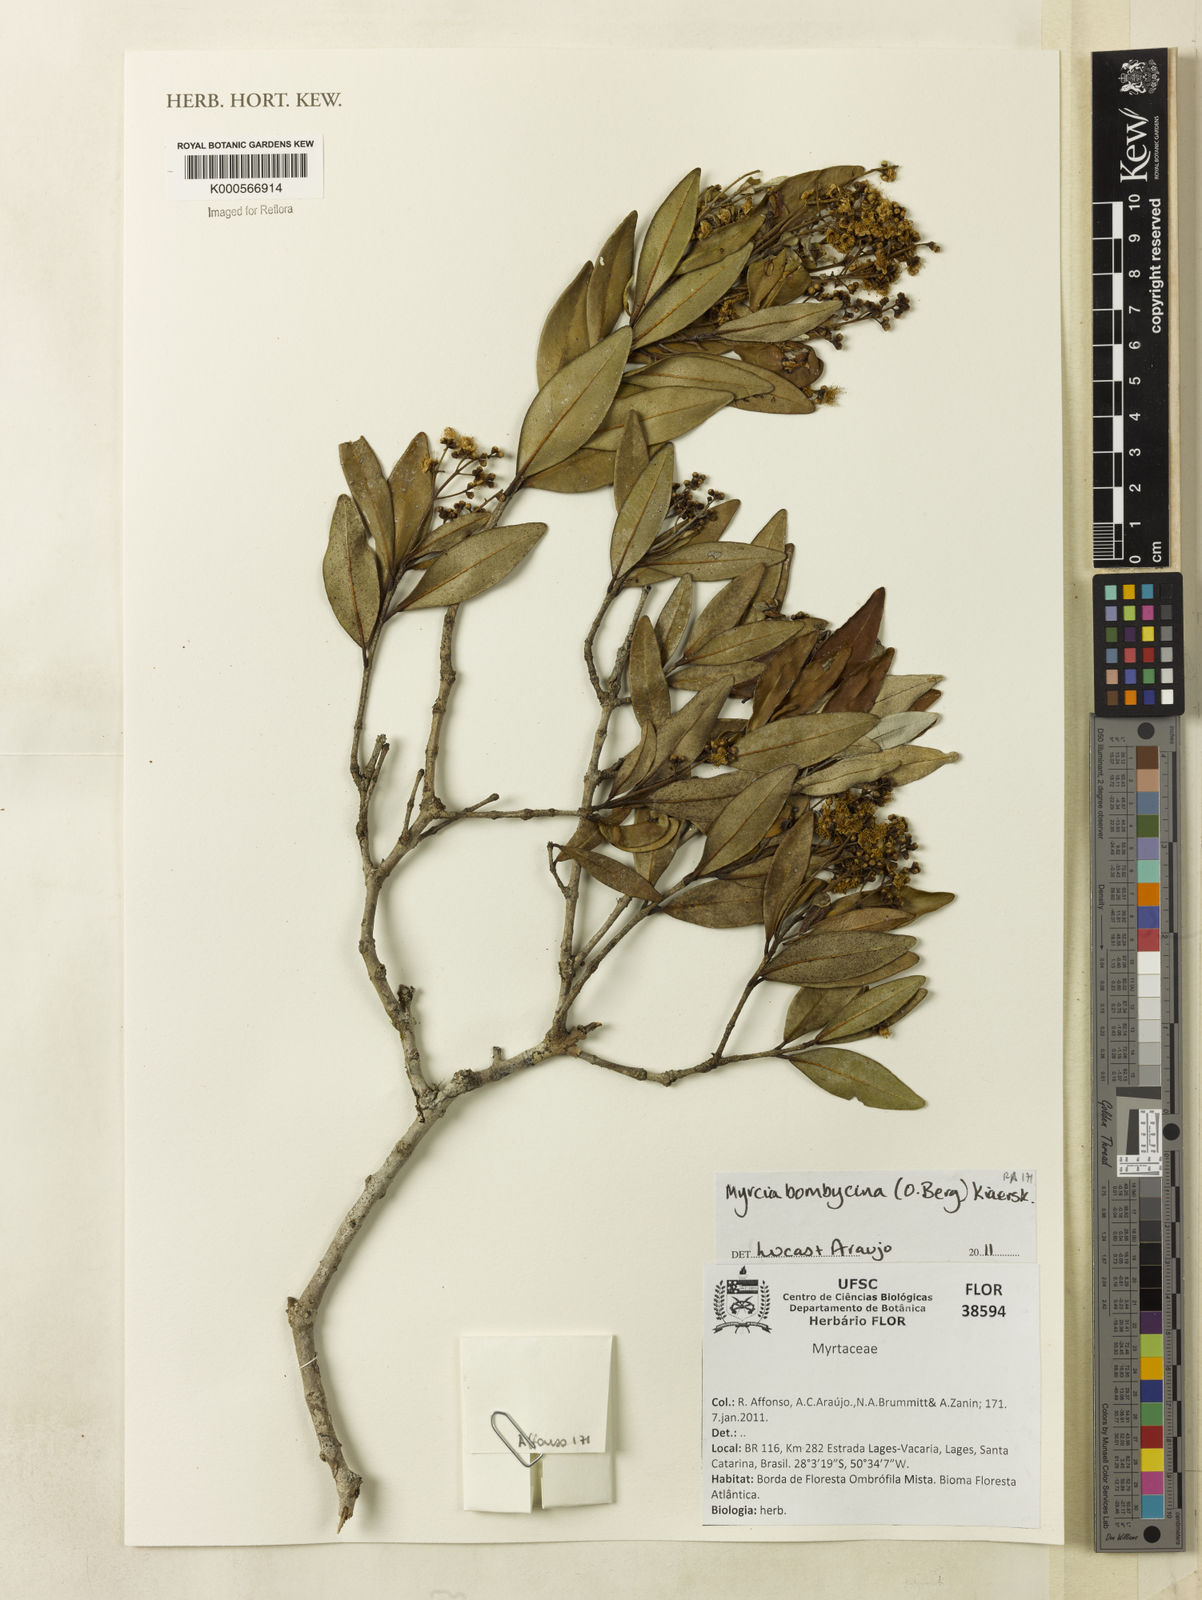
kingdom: Plantae
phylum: Tracheophyta
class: Magnoliopsida
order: Myrtales
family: Myrtaceae
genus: Myrcia
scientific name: Myrcia oblongata
